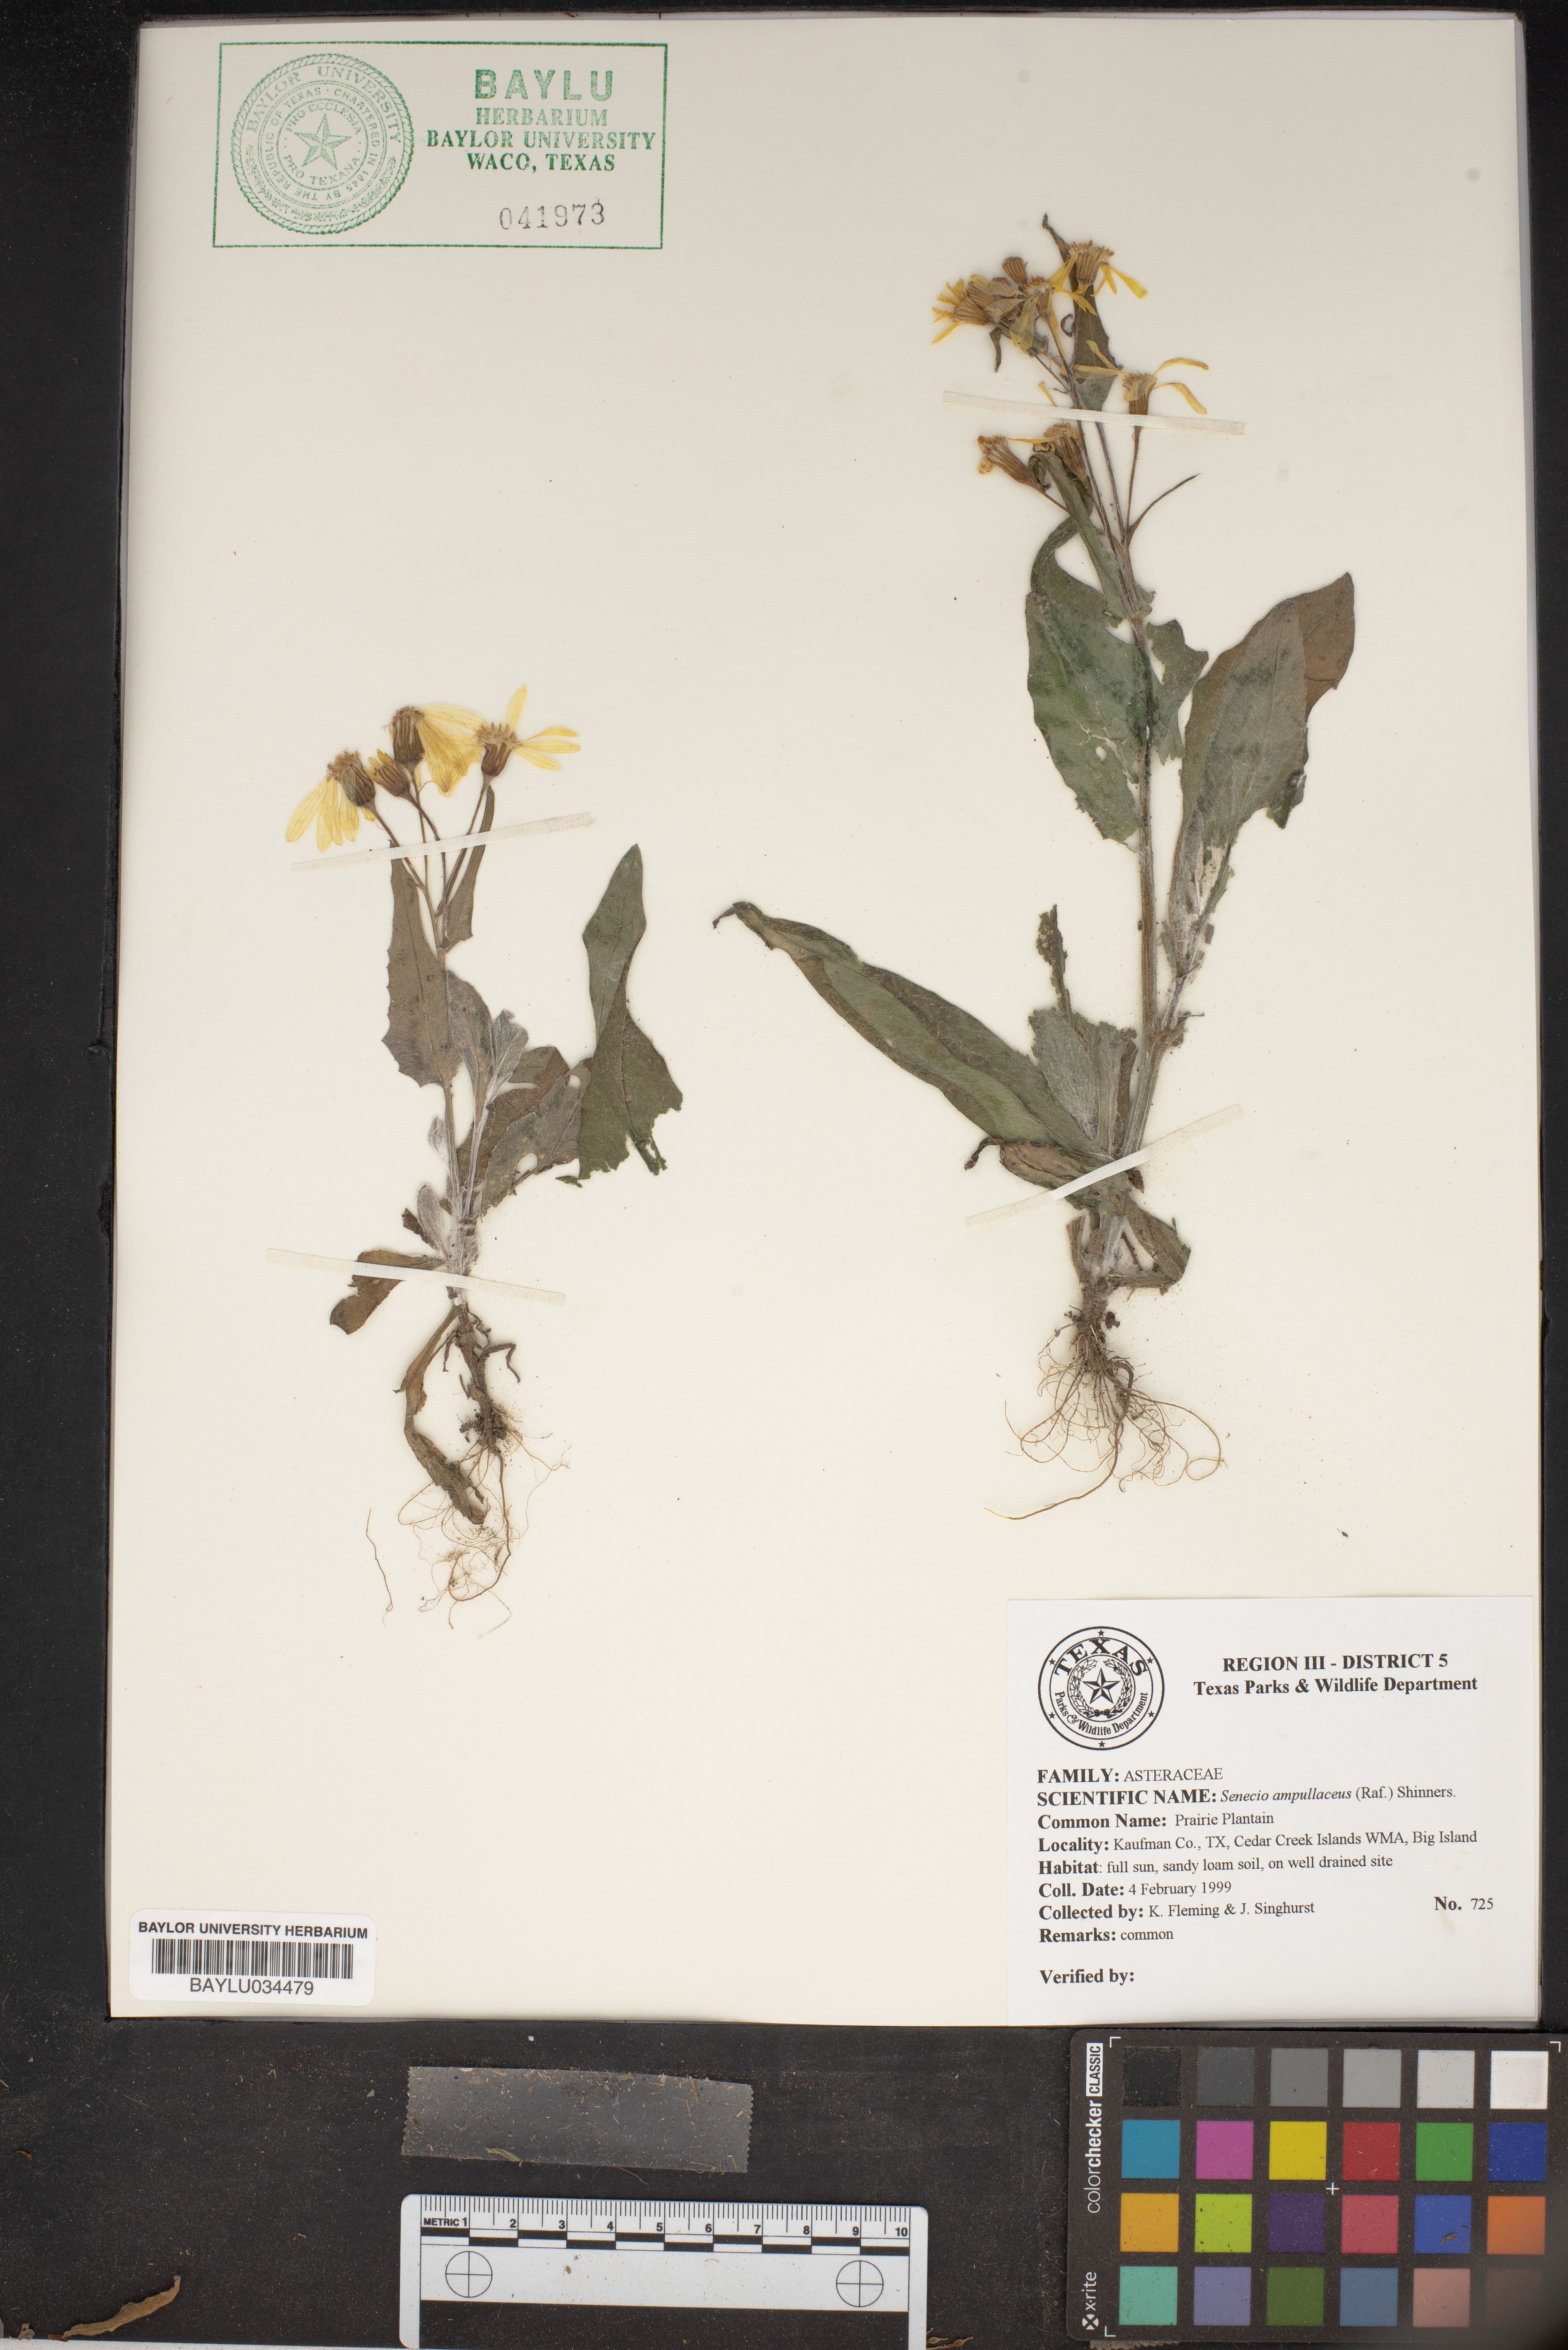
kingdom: Plantae
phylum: Tracheophyta
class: Magnoliopsida
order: Asterales
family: Asteraceae
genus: Senecio
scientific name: Senecio ampullaceus
